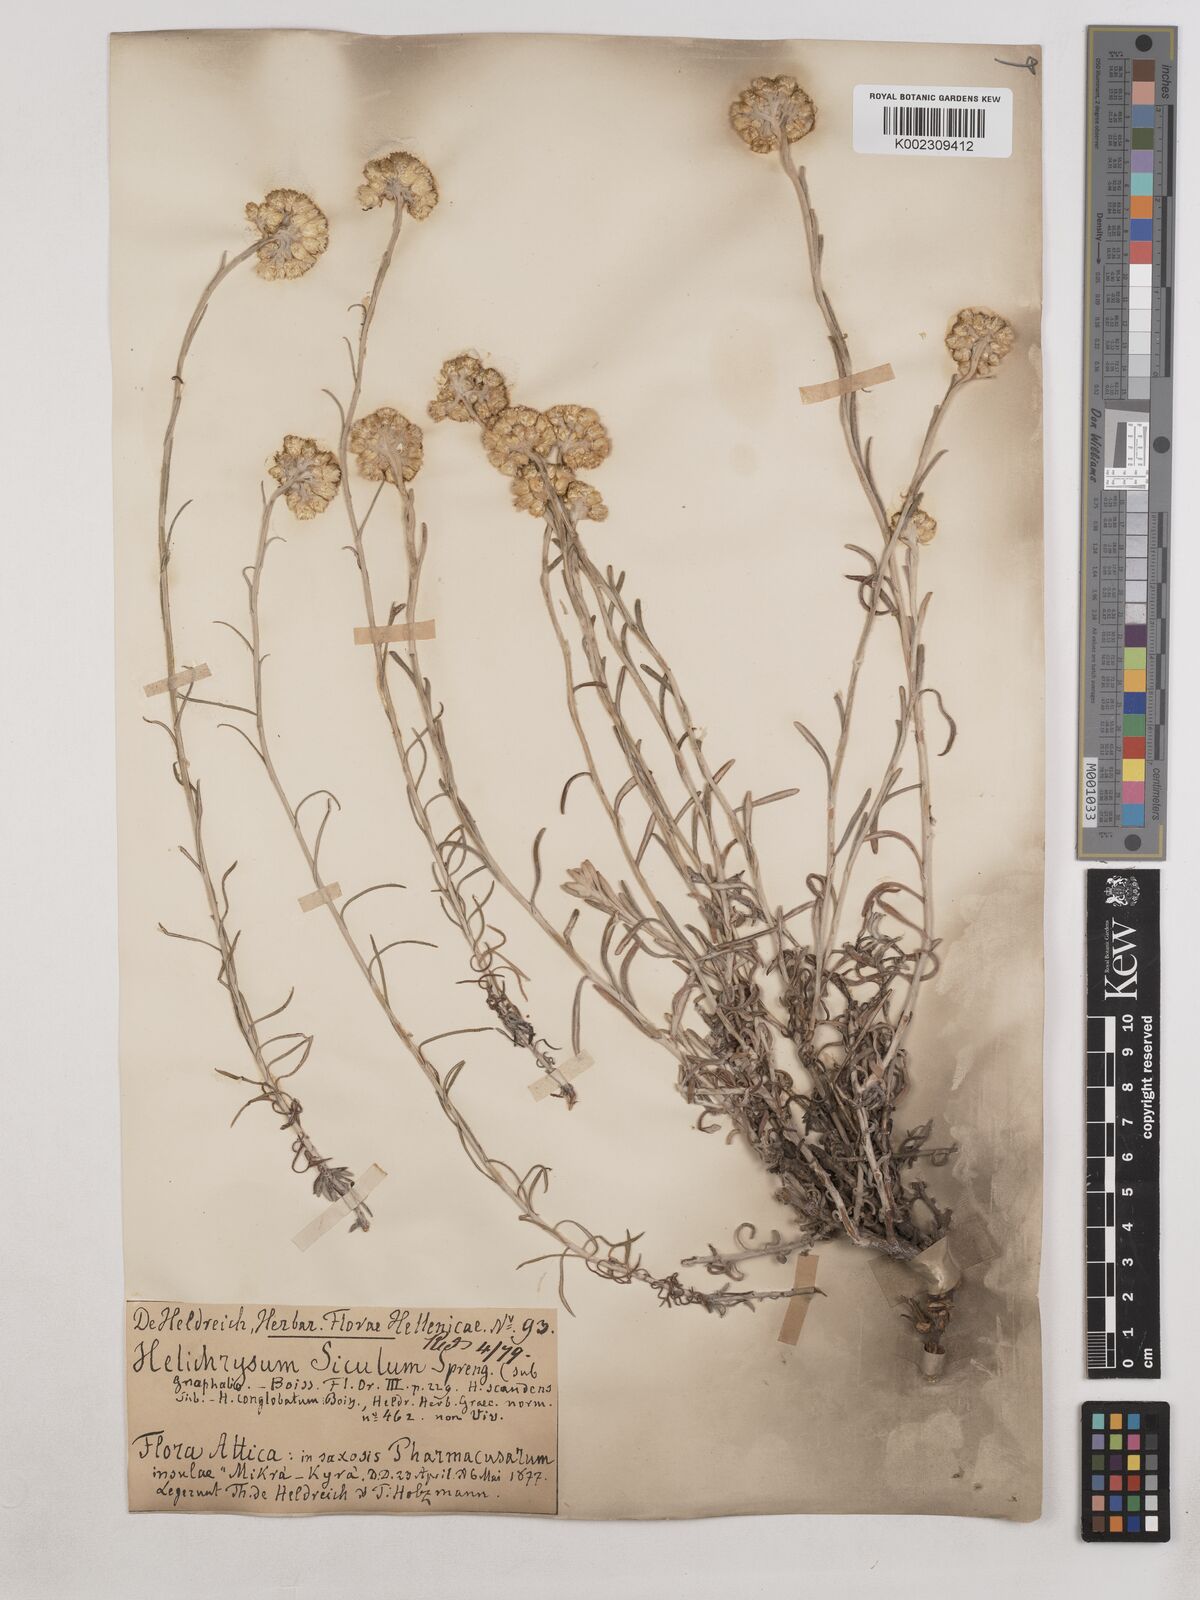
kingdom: Plantae
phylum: Tracheophyta
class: Magnoliopsida
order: Asterales
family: Asteraceae
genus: Helichrysum
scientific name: Helichrysum stoechas
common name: Goldilocks
